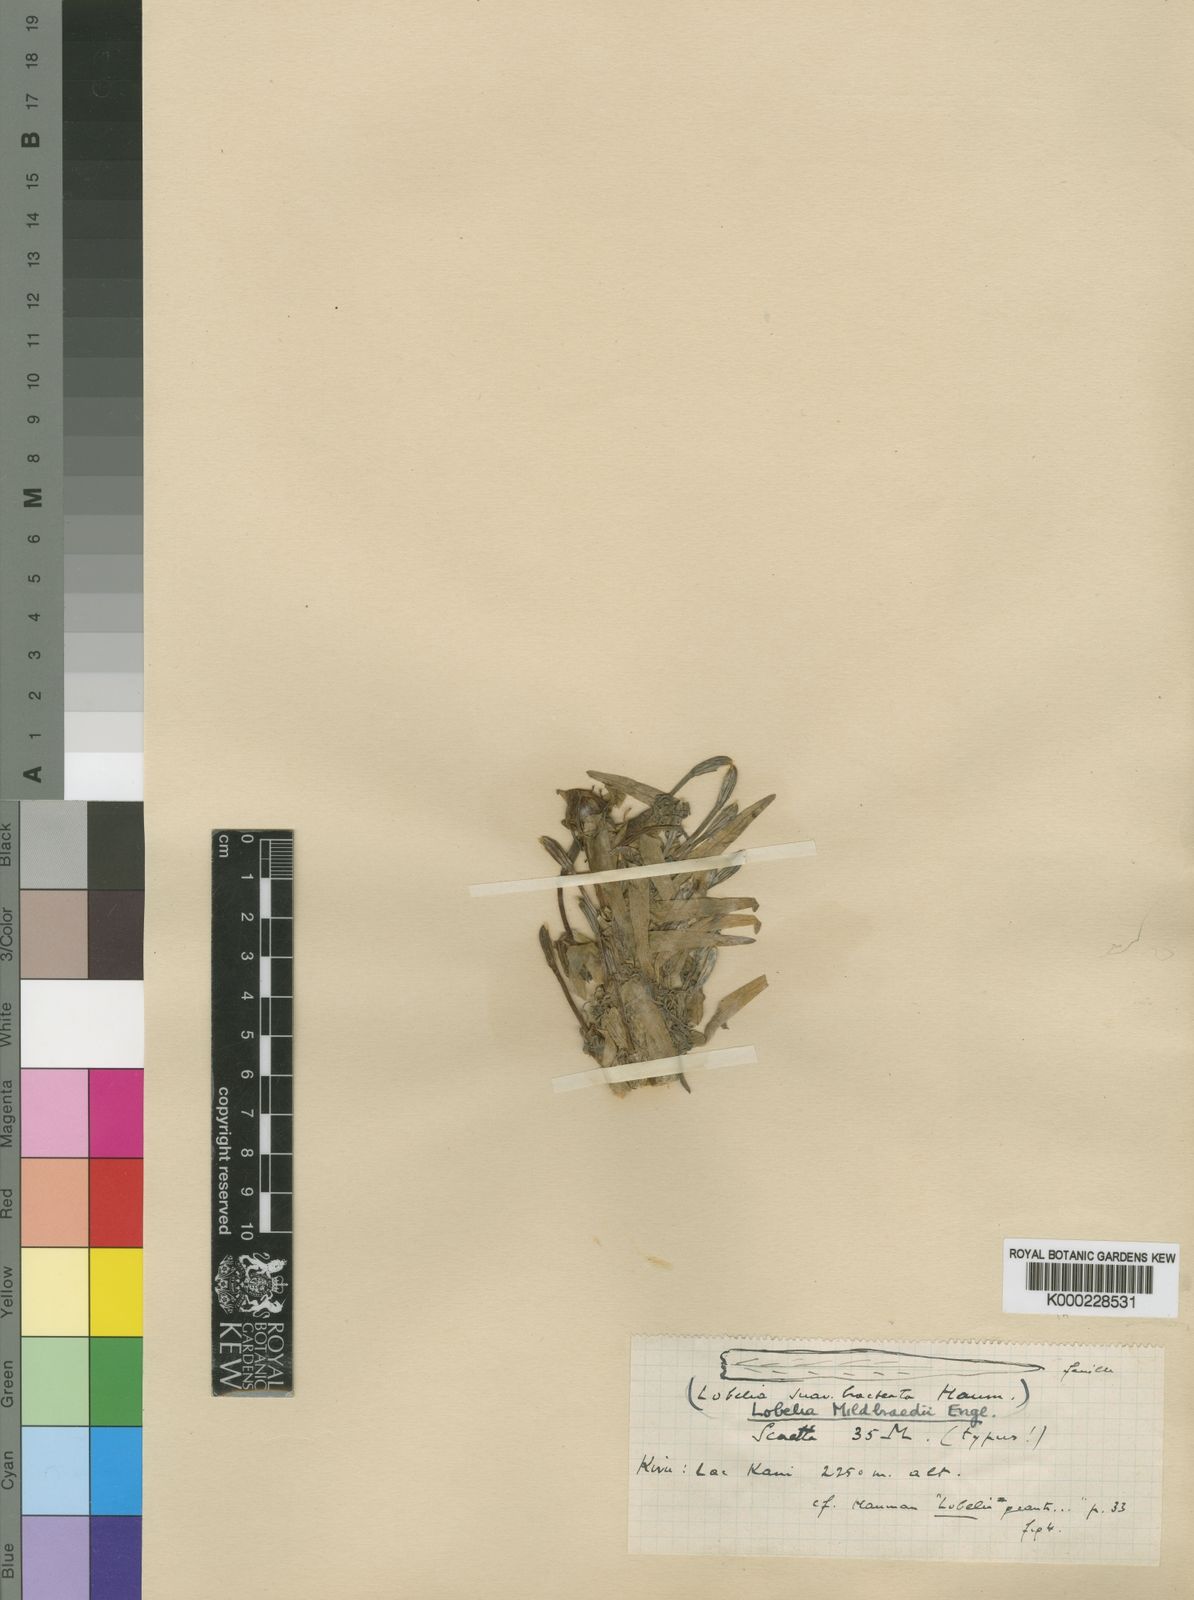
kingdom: Plantae
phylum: Tracheophyta
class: Magnoliopsida
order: Asterales
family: Campanulaceae
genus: Lobelia
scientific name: Lobelia mildbraedii
